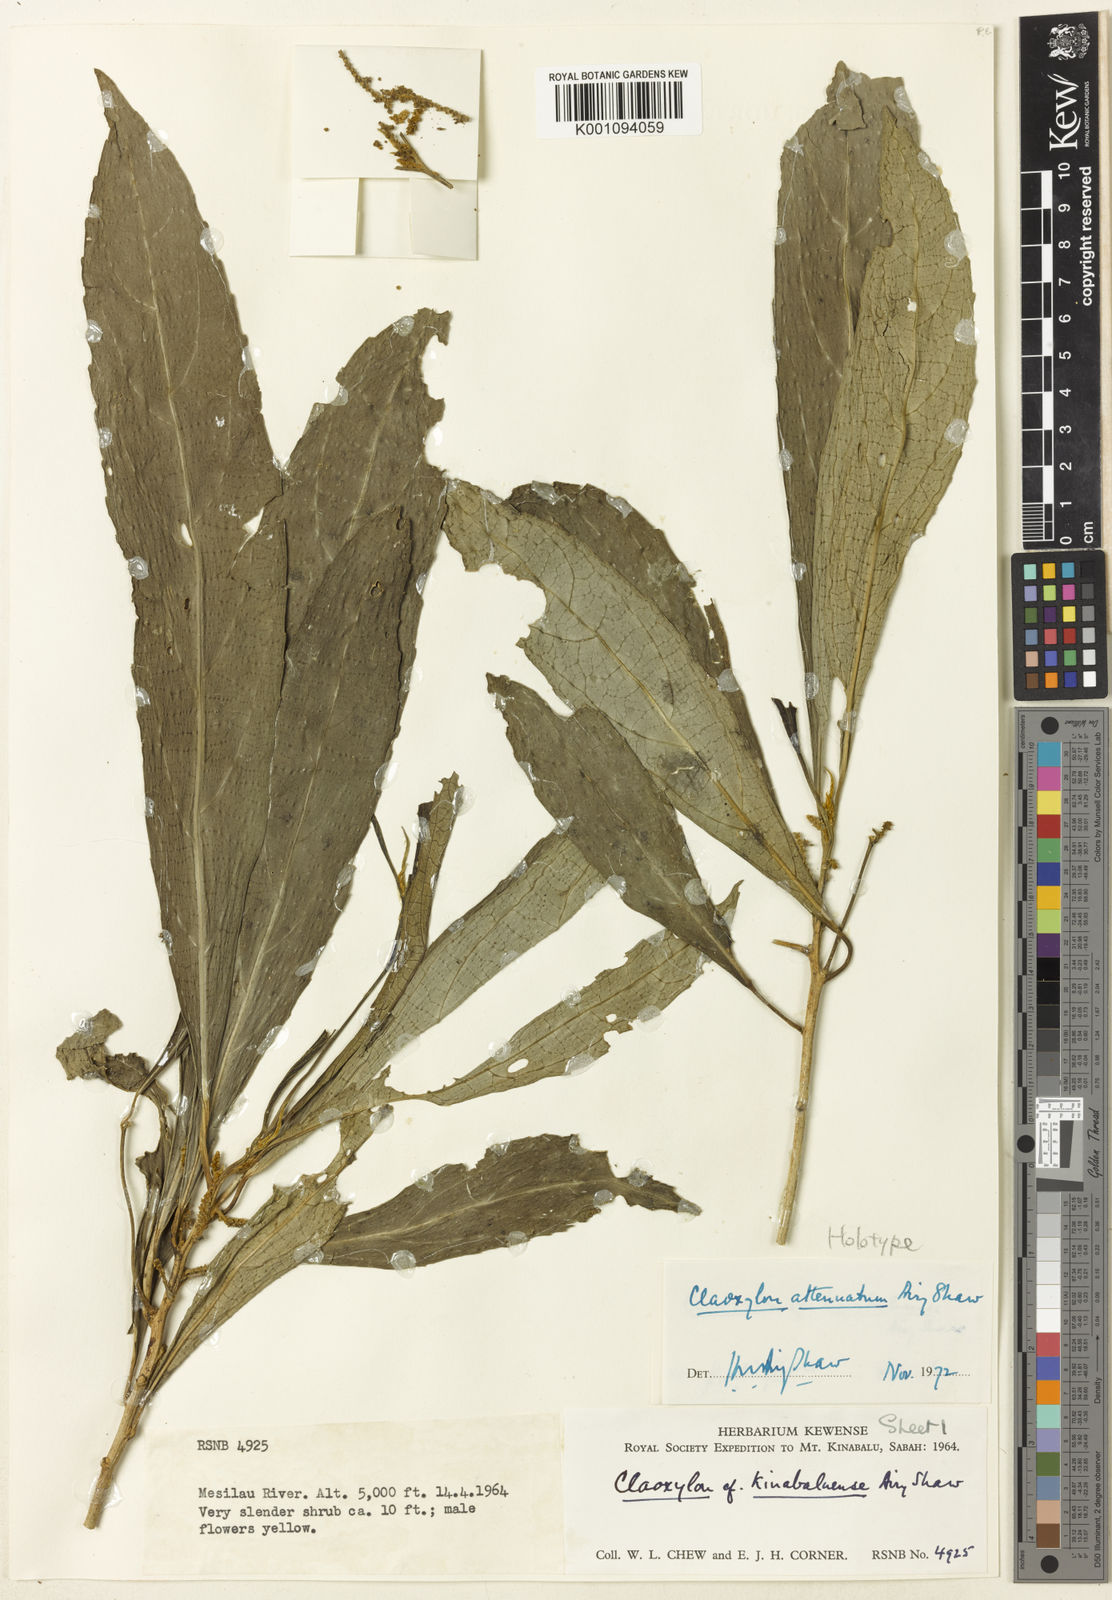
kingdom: Plantae
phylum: Tracheophyta
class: Magnoliopsida
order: Malpighiales
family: Euphorbiaceae
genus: Claoxylon
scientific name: Claoxylon attenuatum
